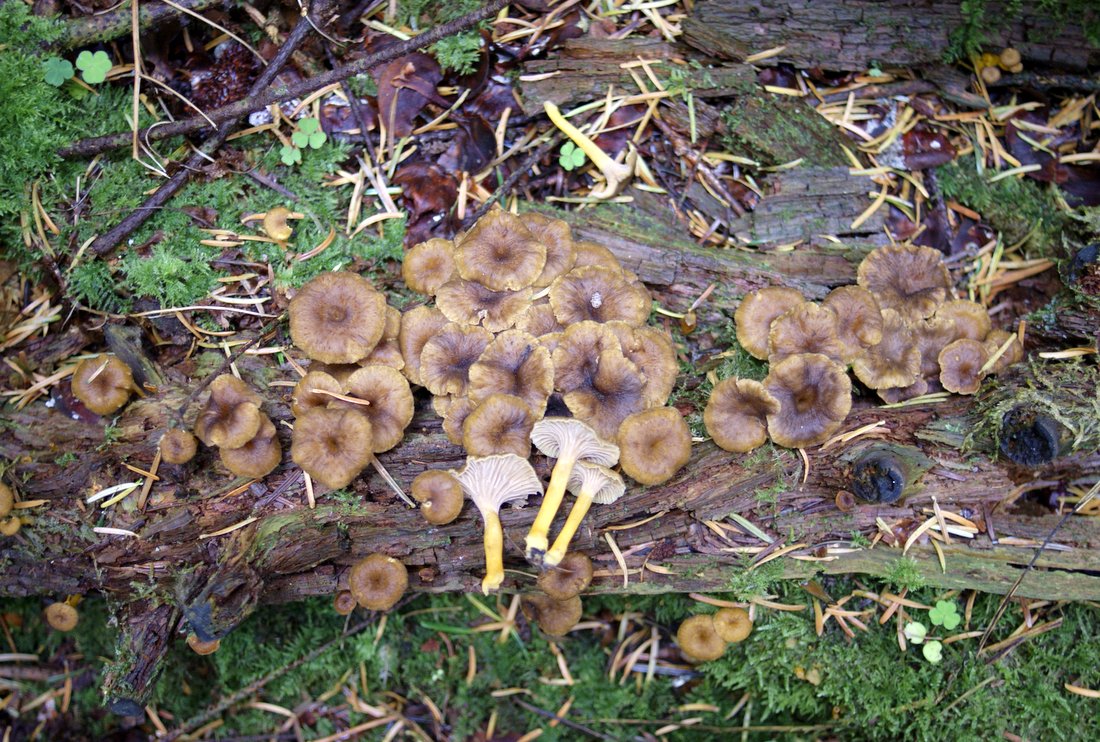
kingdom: Fungi
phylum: Basidiomycota
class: Agaricomycetes
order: Cantharellales
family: Hydnaceae
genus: Craterellus
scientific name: Craterellus tubaeformis
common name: tragt-kantarel
